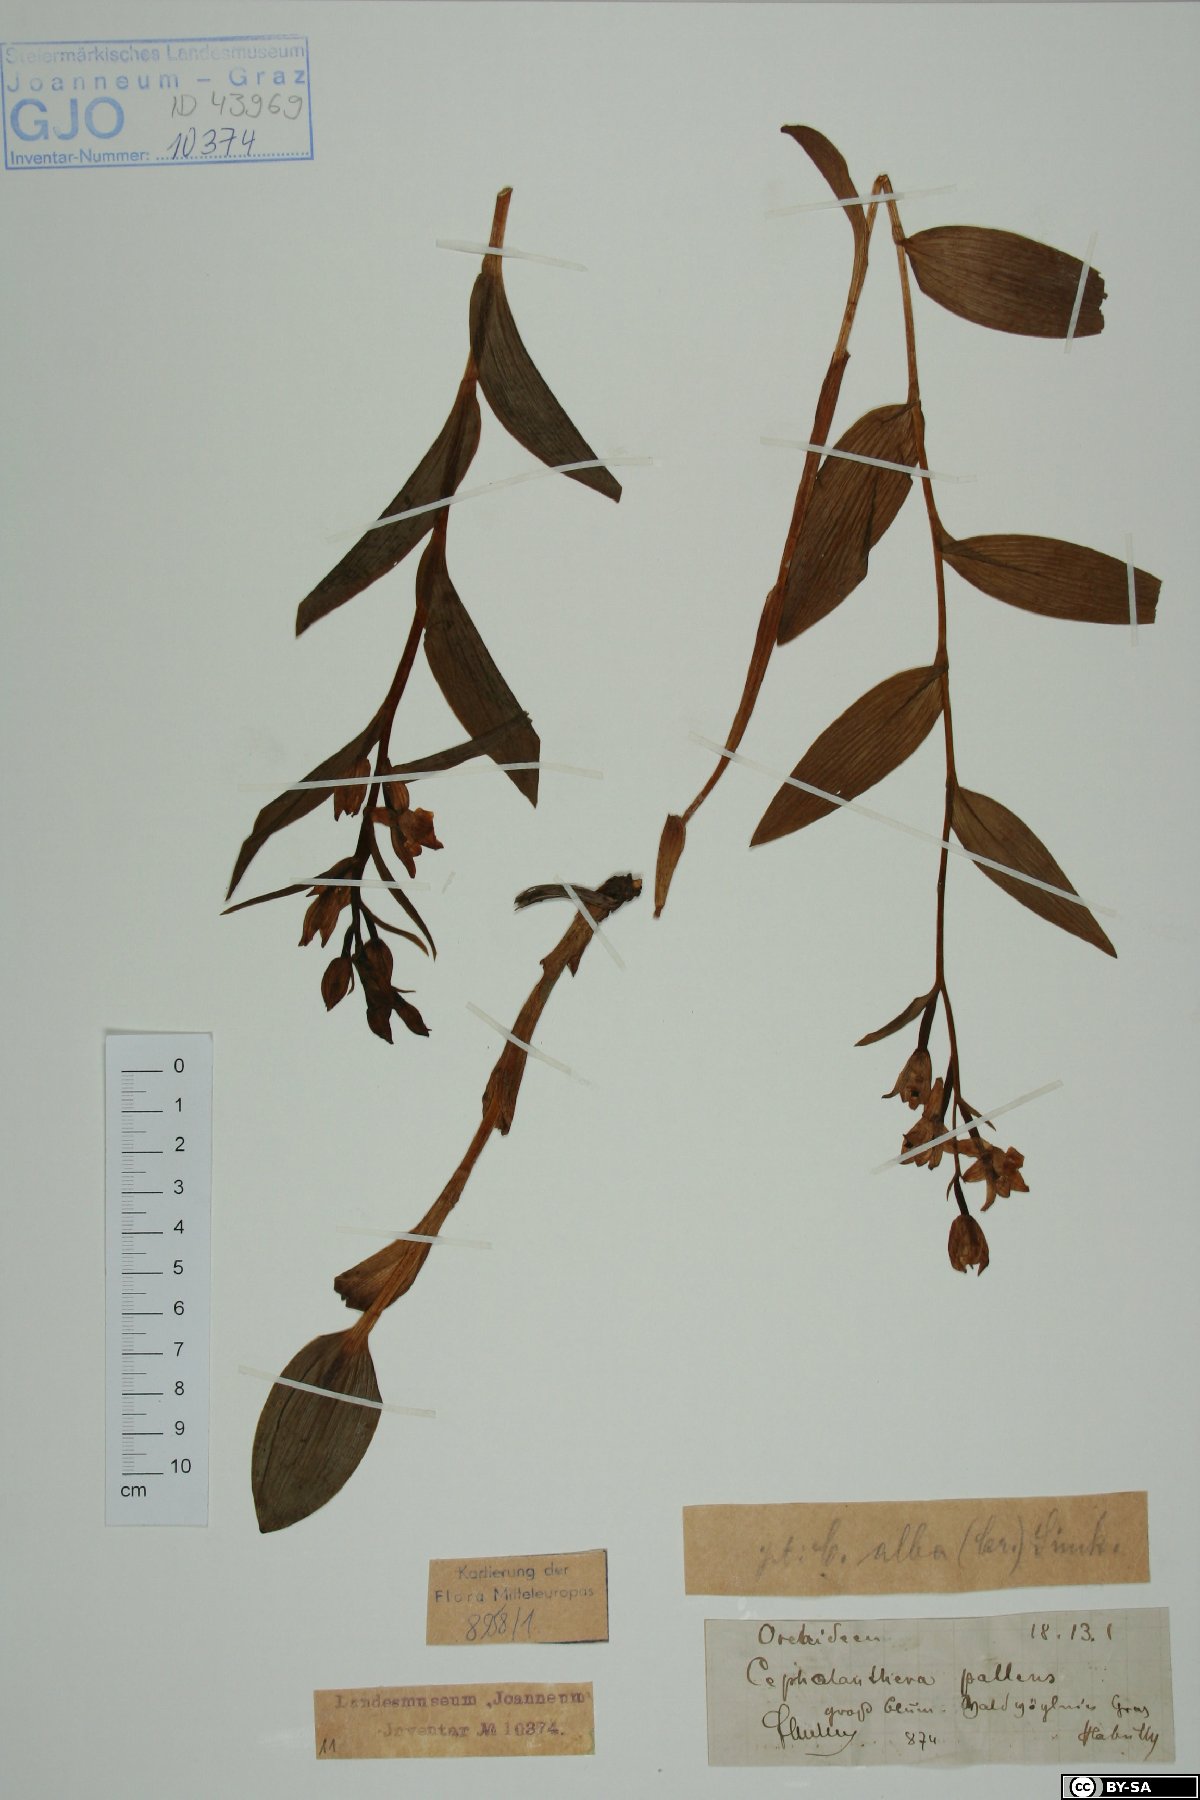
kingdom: Plantae
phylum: Tracheophyta
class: Liliopsida
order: Asparagales
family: Orchidaceae
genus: Cephalanthera
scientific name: Cephalanthera longifolia
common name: Narrow-leaved helleborine
